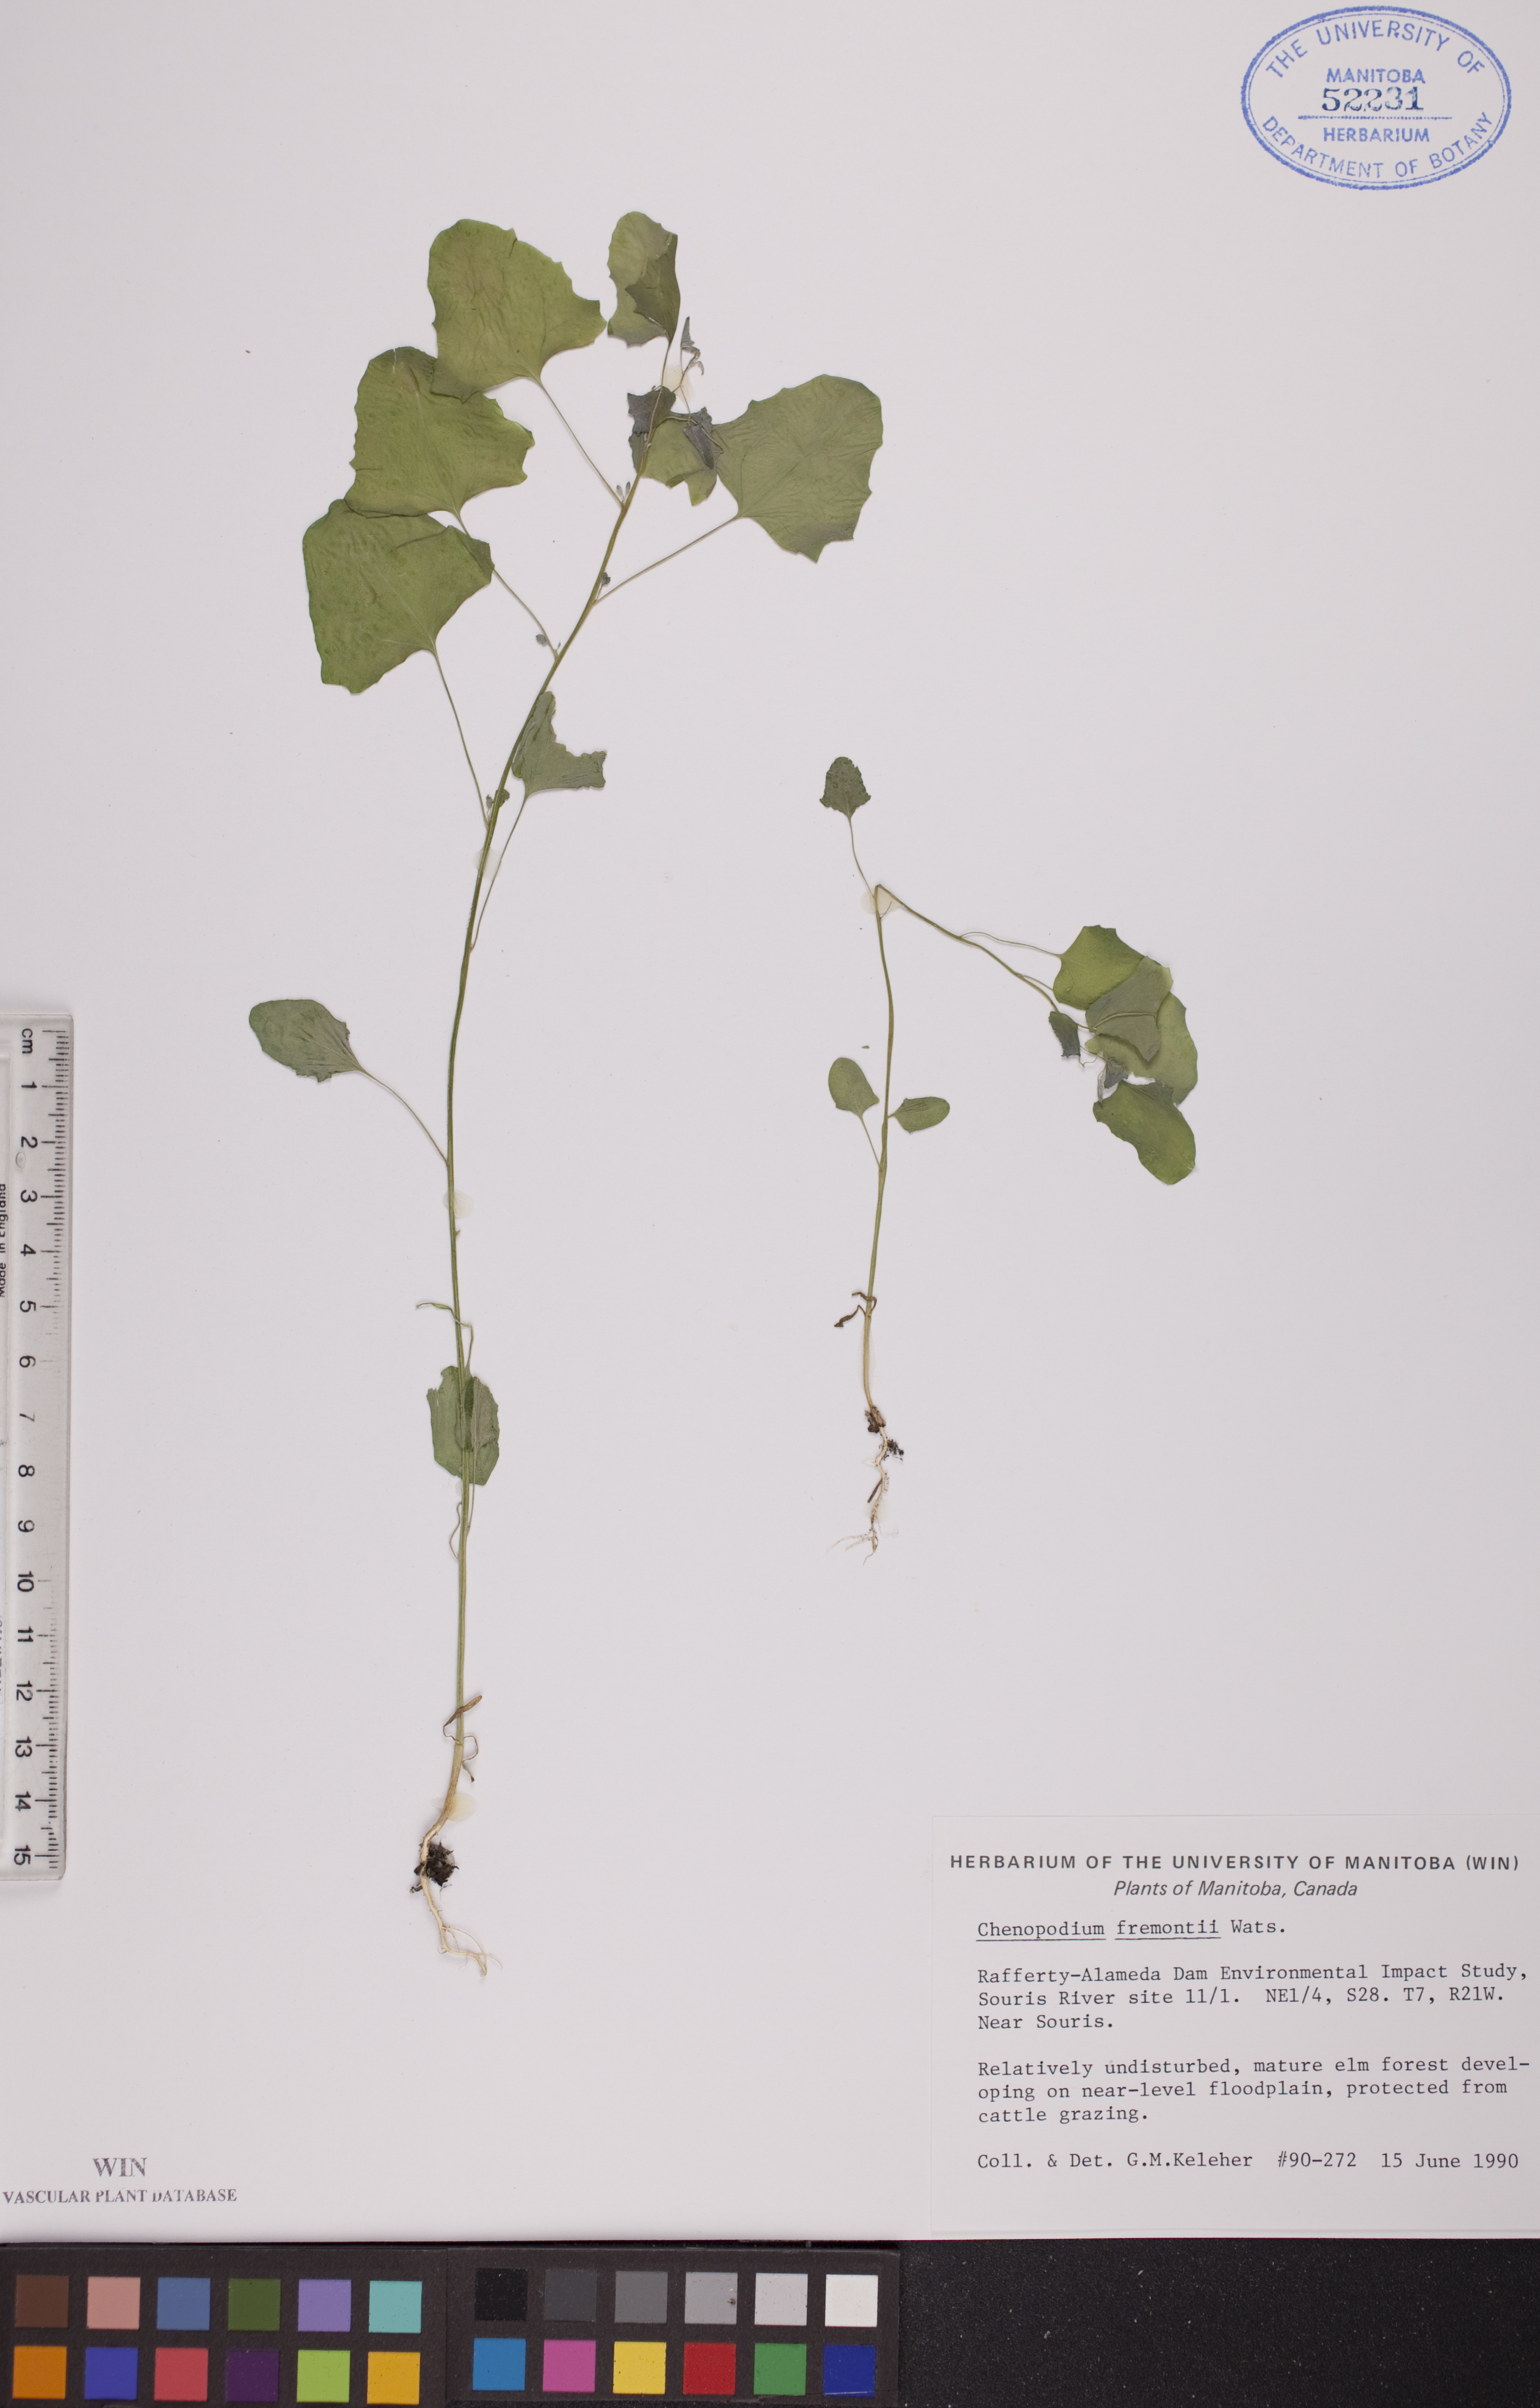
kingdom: Plantae
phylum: Tracheophyta
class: Magnoliopsida
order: Caryophyllales
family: Amaranthaceae
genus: Chenopodium
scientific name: Chenopodium fremontii
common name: Fremont's goosefoot
